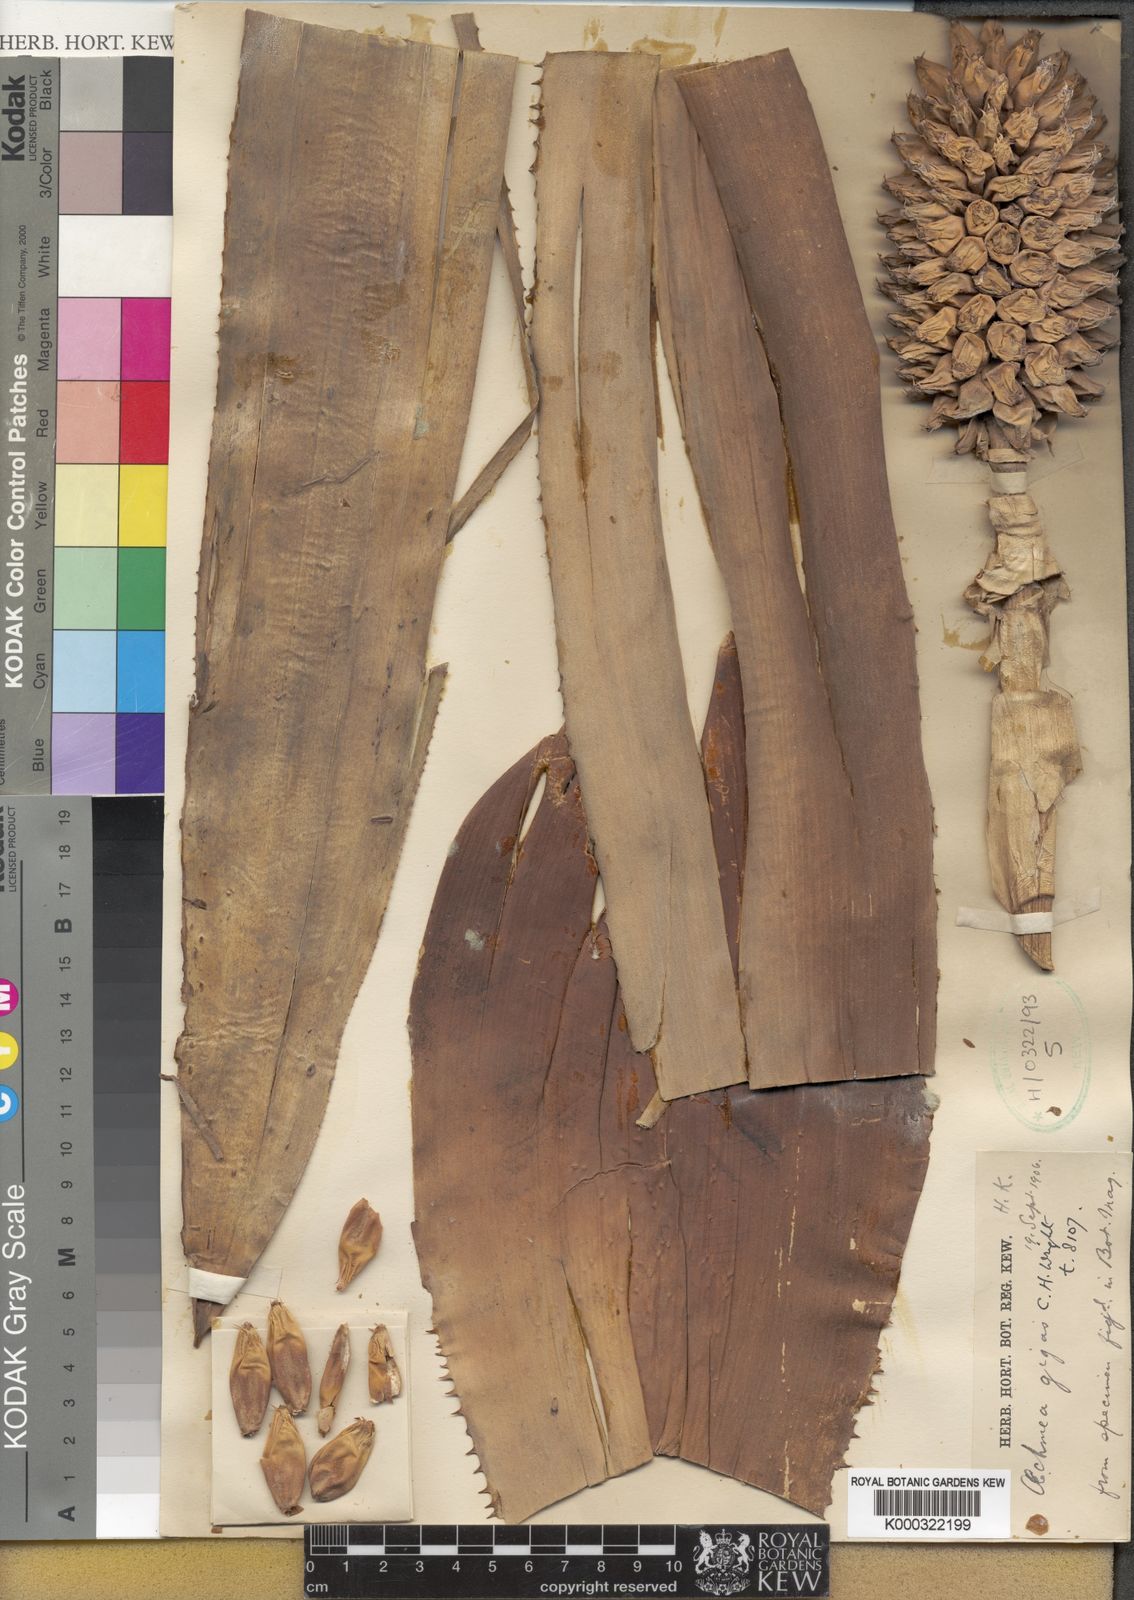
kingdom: Plantae
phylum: Tracheophyta
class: Liliopsida
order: Poales
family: Bromeliaceae
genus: Aechmea
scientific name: Aechmea mariae-reginae
